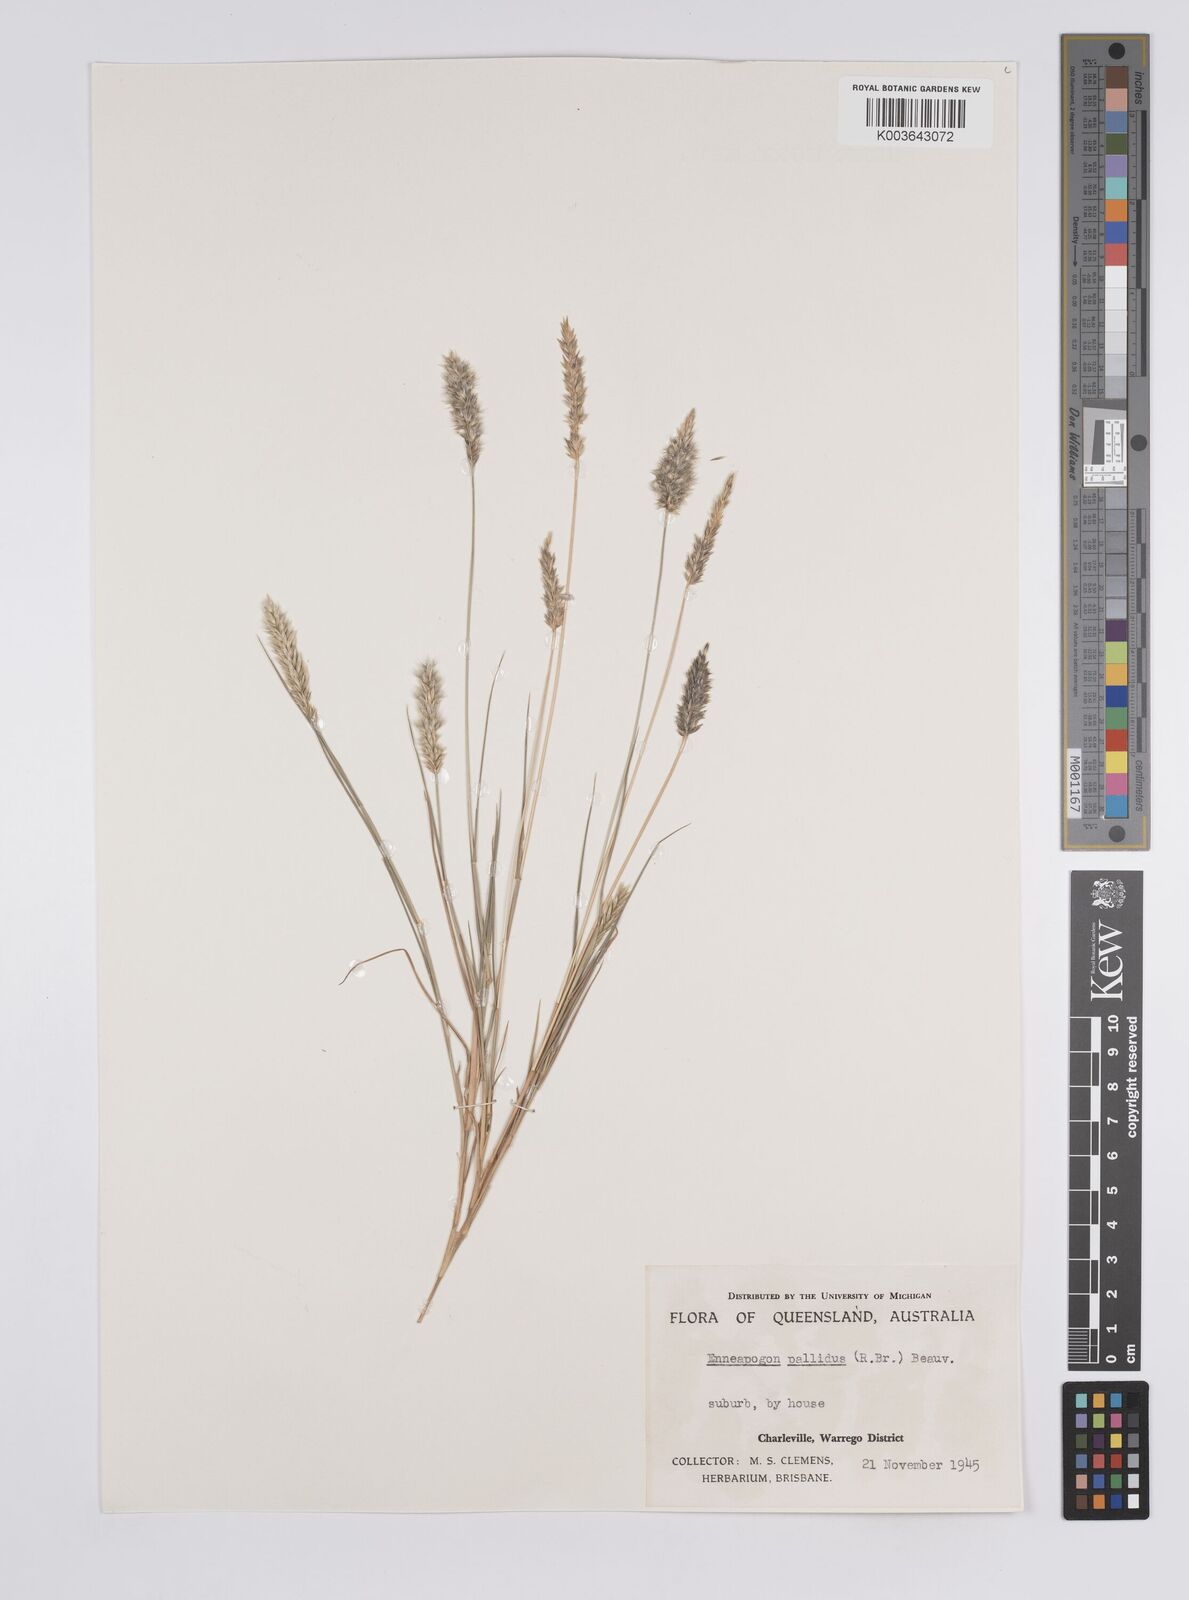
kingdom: Plantae
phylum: Tracheophyta
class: Liliopsida
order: Poales
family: Poaceae
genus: Enneapogon
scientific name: Enneapogon pallidus
